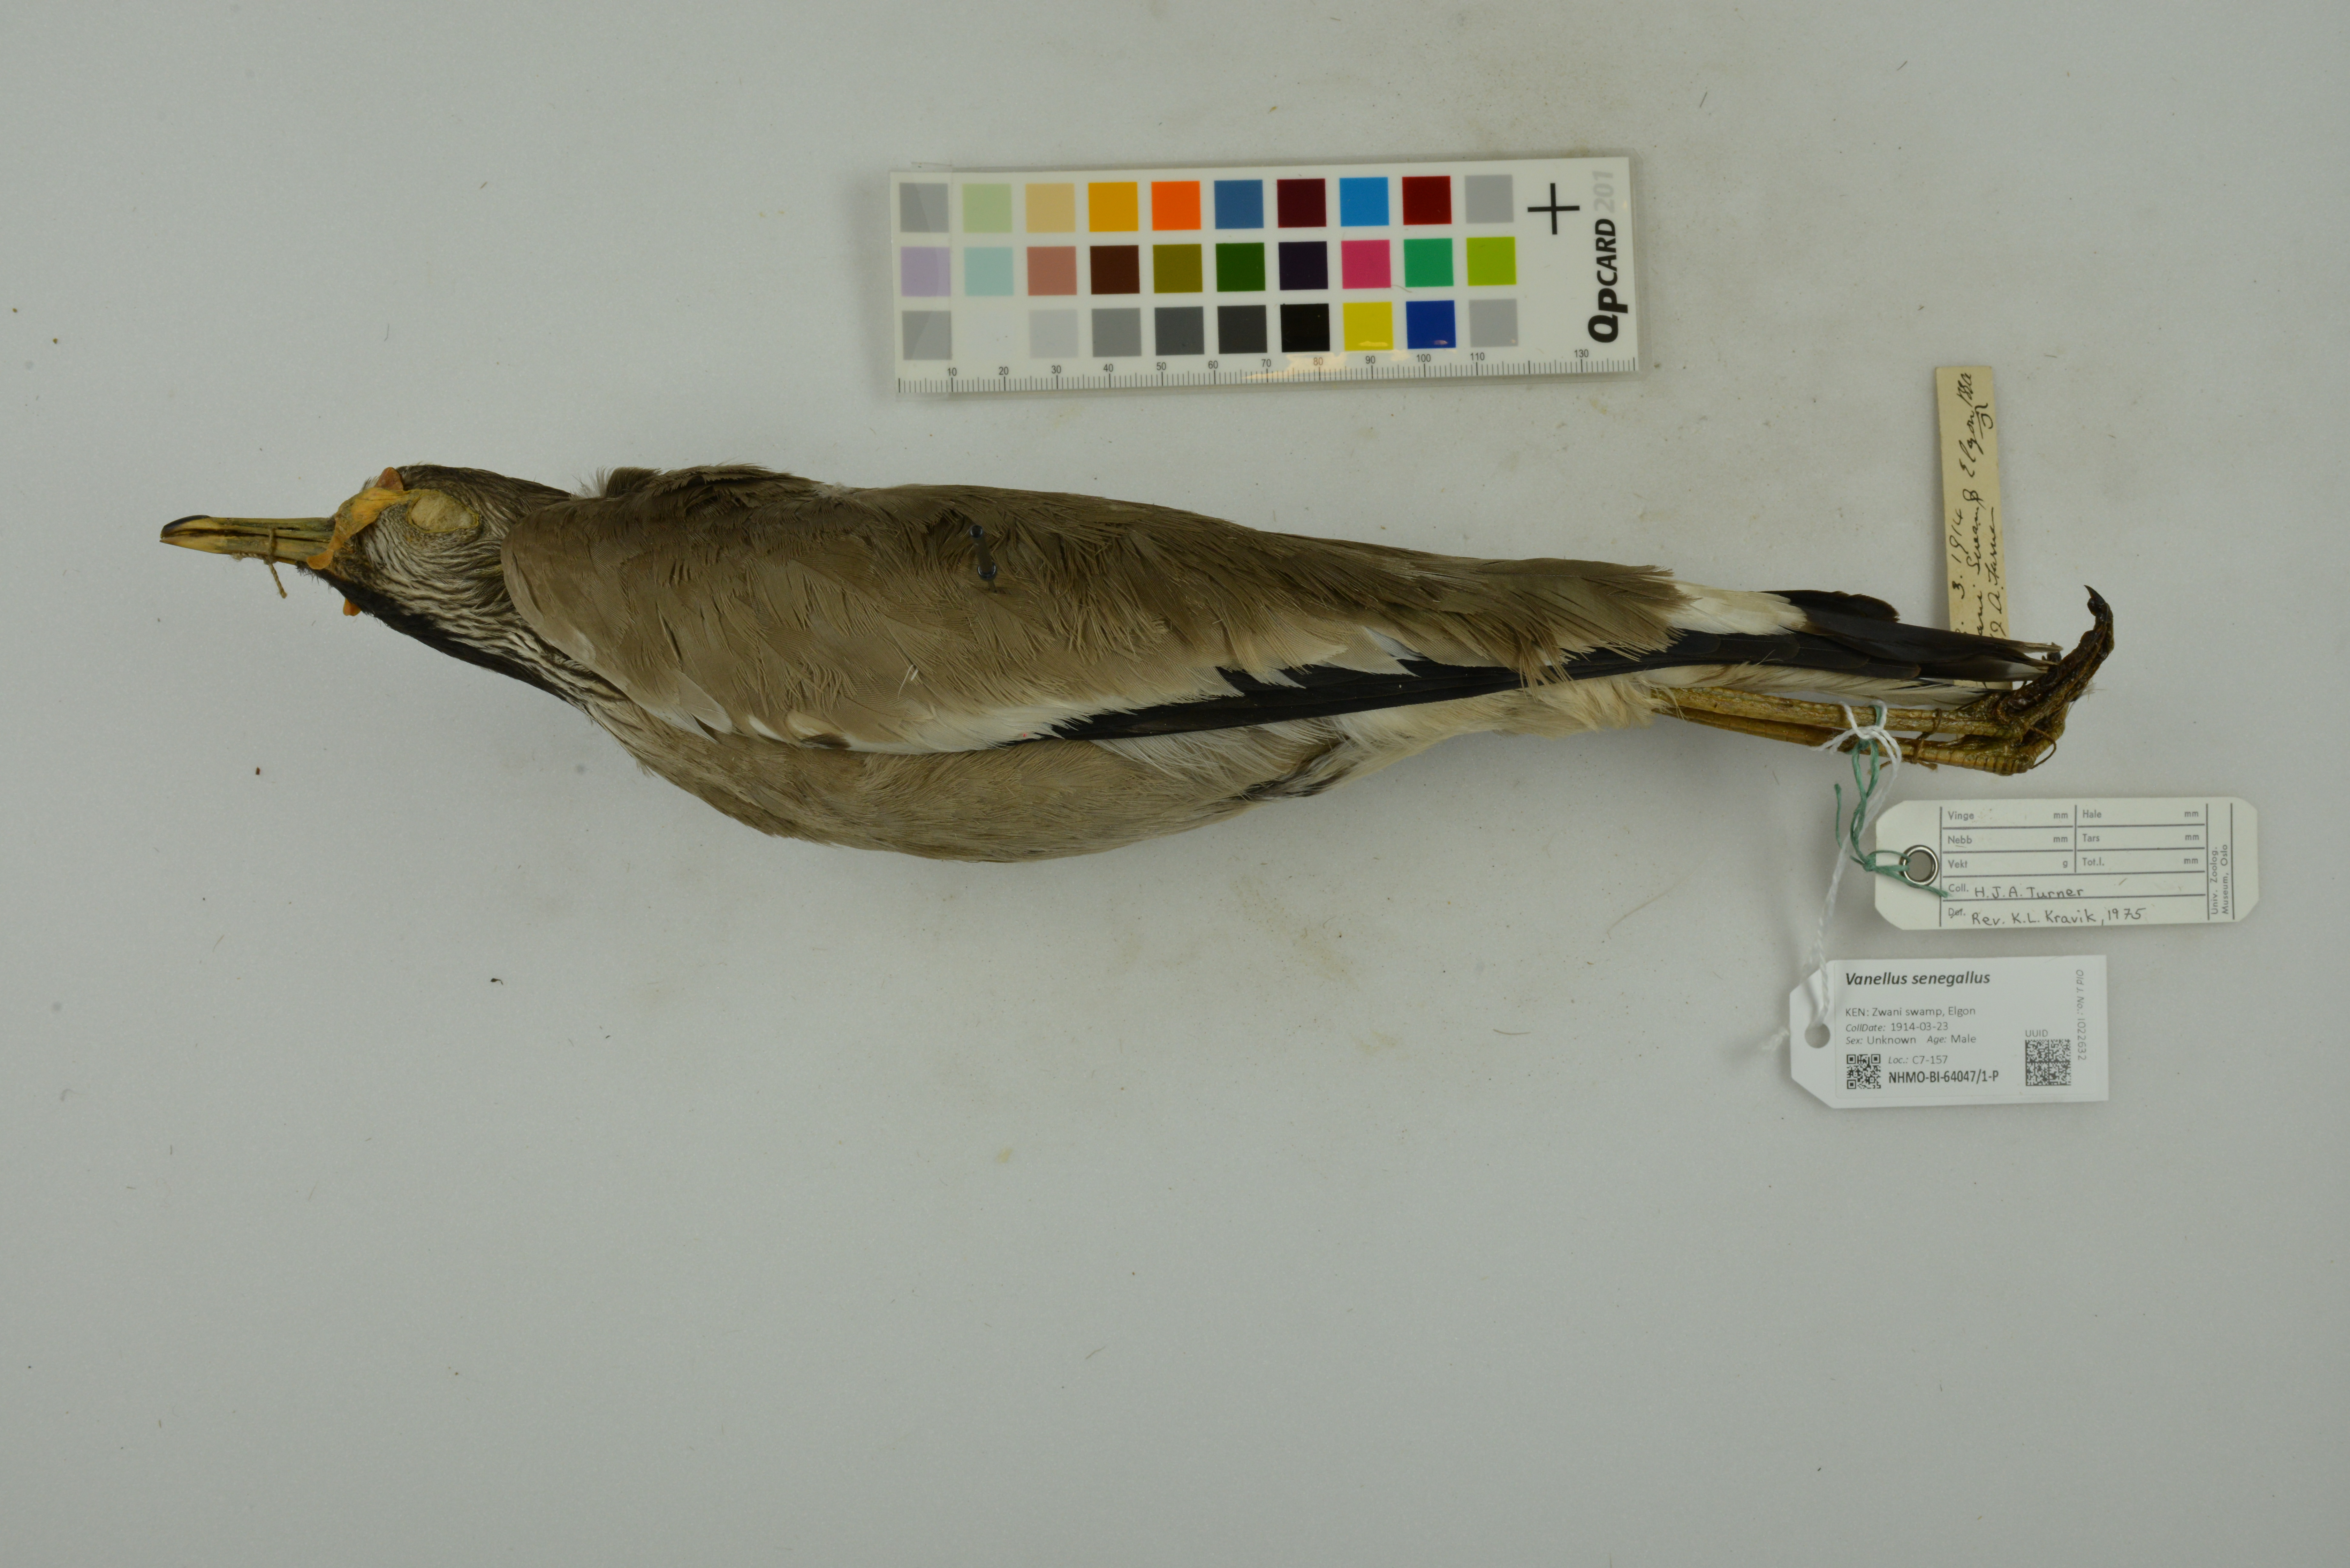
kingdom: Animalia
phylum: Chordata
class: Aves
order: Charadriiformes
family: Charadriidae
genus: Vanellus
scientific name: Vanellus senegallus
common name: African wattled lapwing
